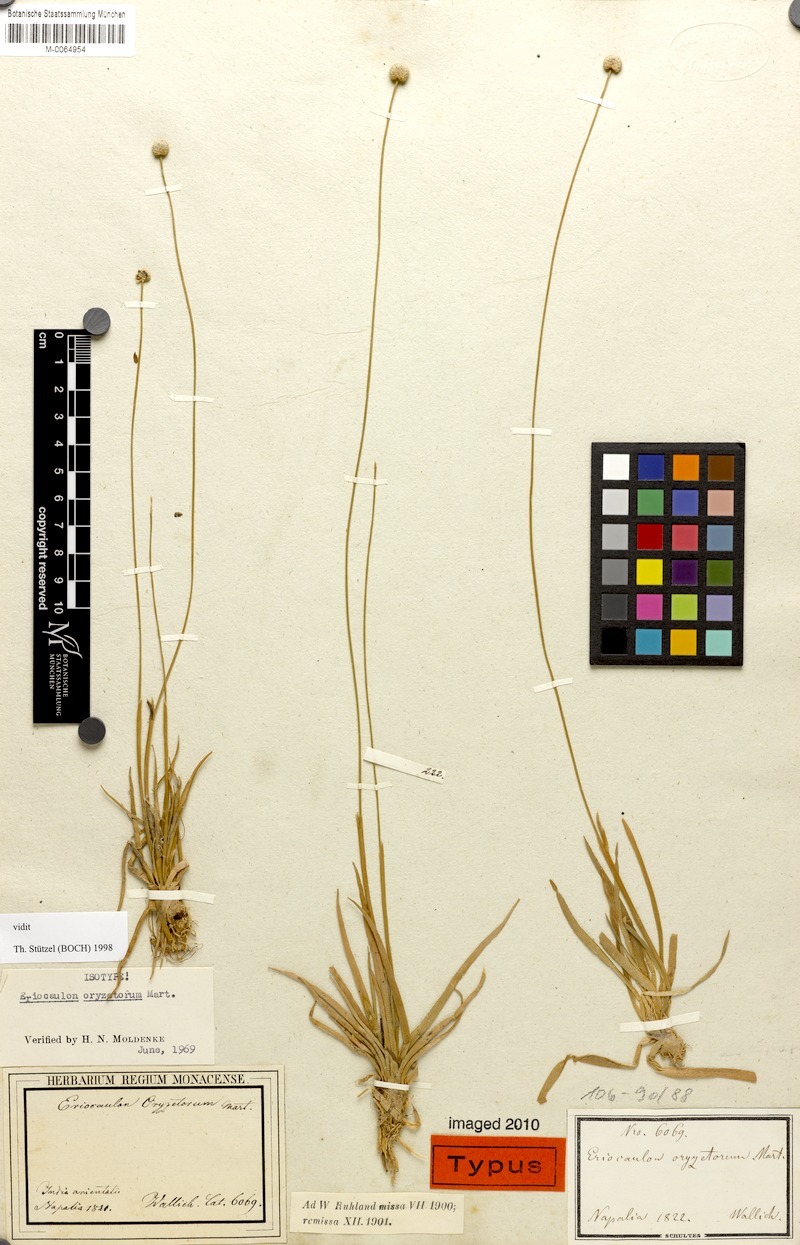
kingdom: Plantae
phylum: Tracheophyta
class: Liliopsida
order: Poales
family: Eriocaulaceae
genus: Eriocaulon
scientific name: Eriocaulon oryzetorum
